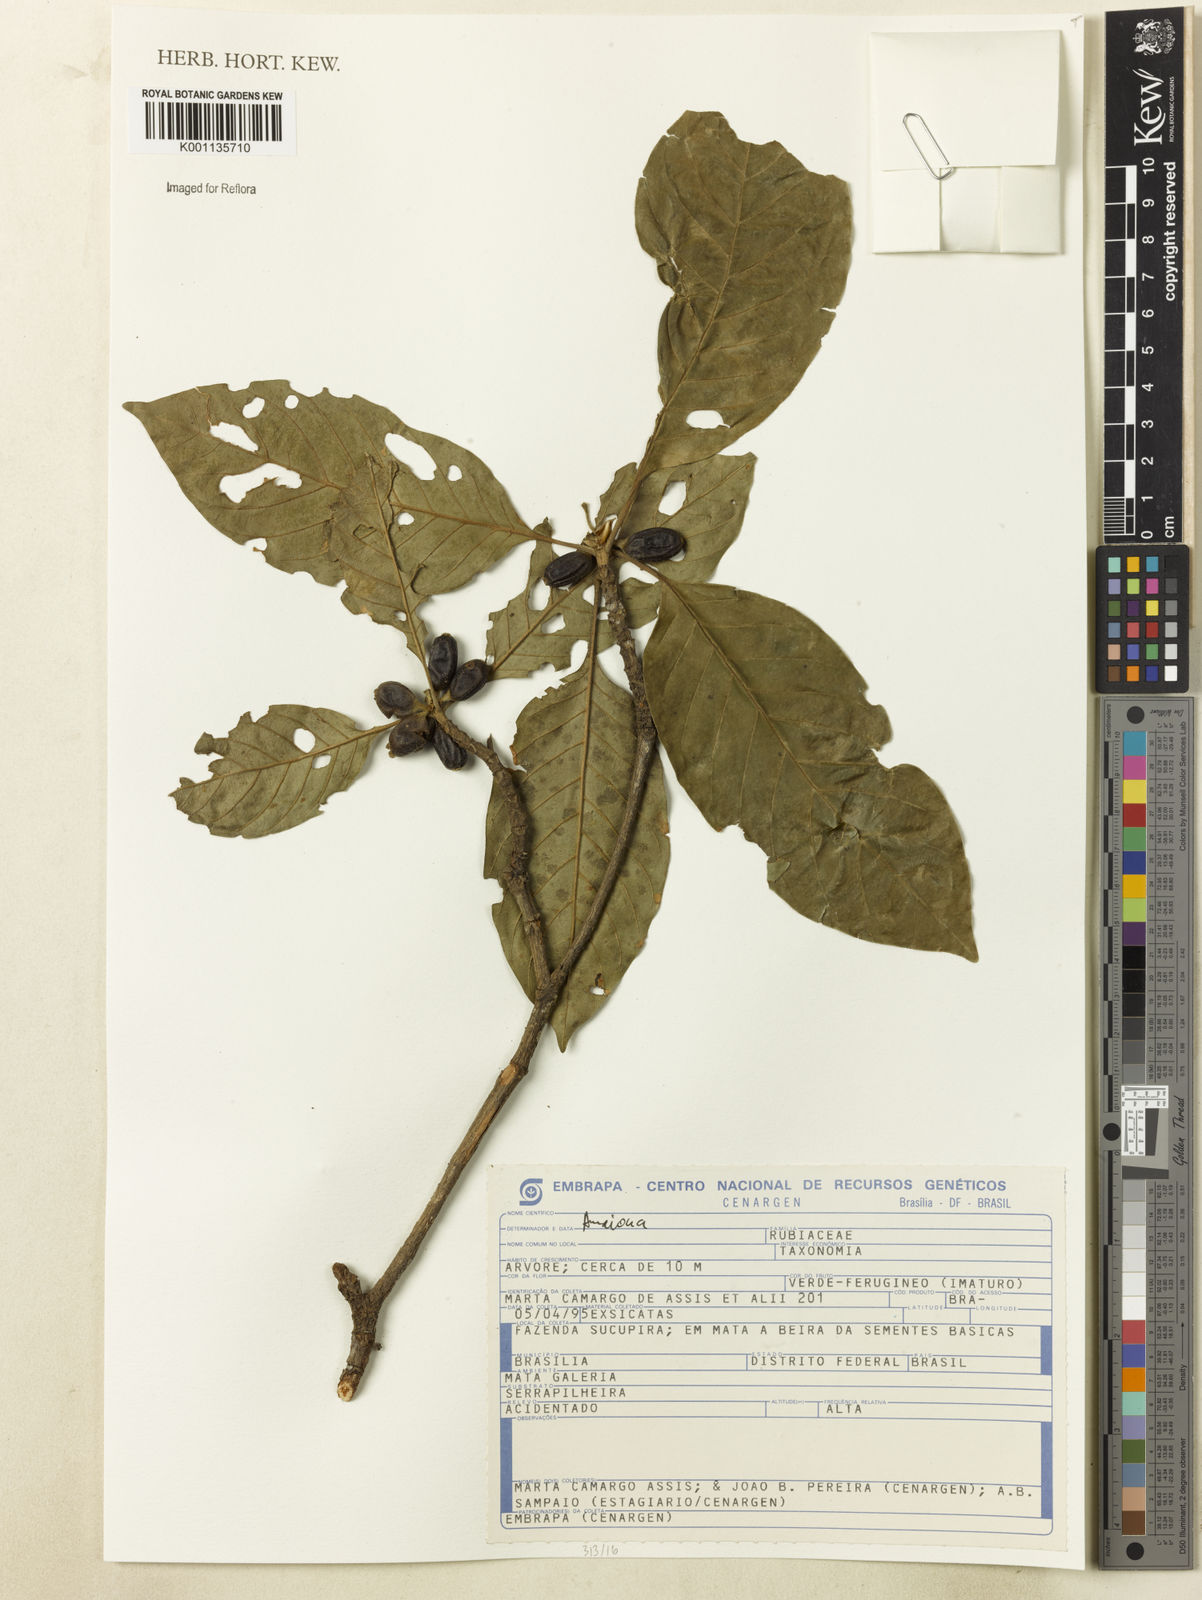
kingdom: Plantae
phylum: Tracheophyta
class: Magnoliopsida
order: Gentianales
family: Rubiaceae
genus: Amaioua
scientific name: Amaioua
